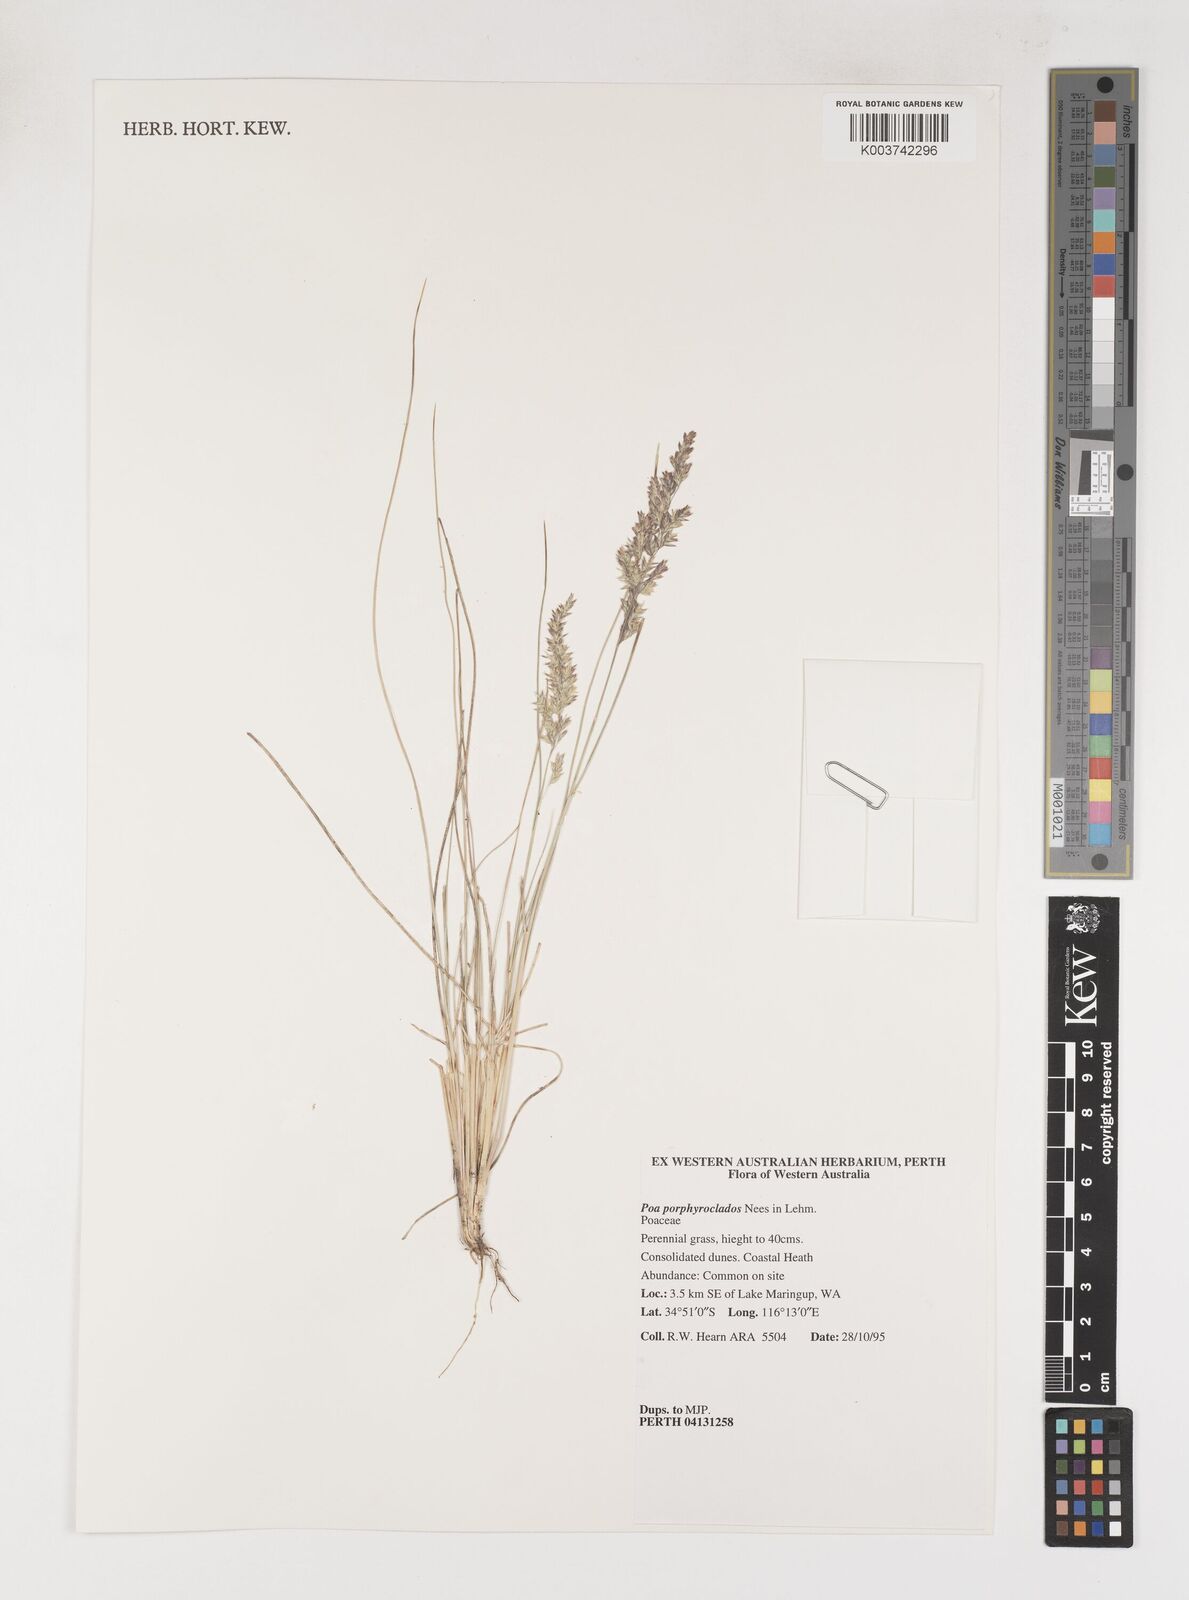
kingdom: Plantae
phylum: Tracheophyta
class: Liliopsida
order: Poales
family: Poaceae
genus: Poa
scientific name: Poa porphyroclados
